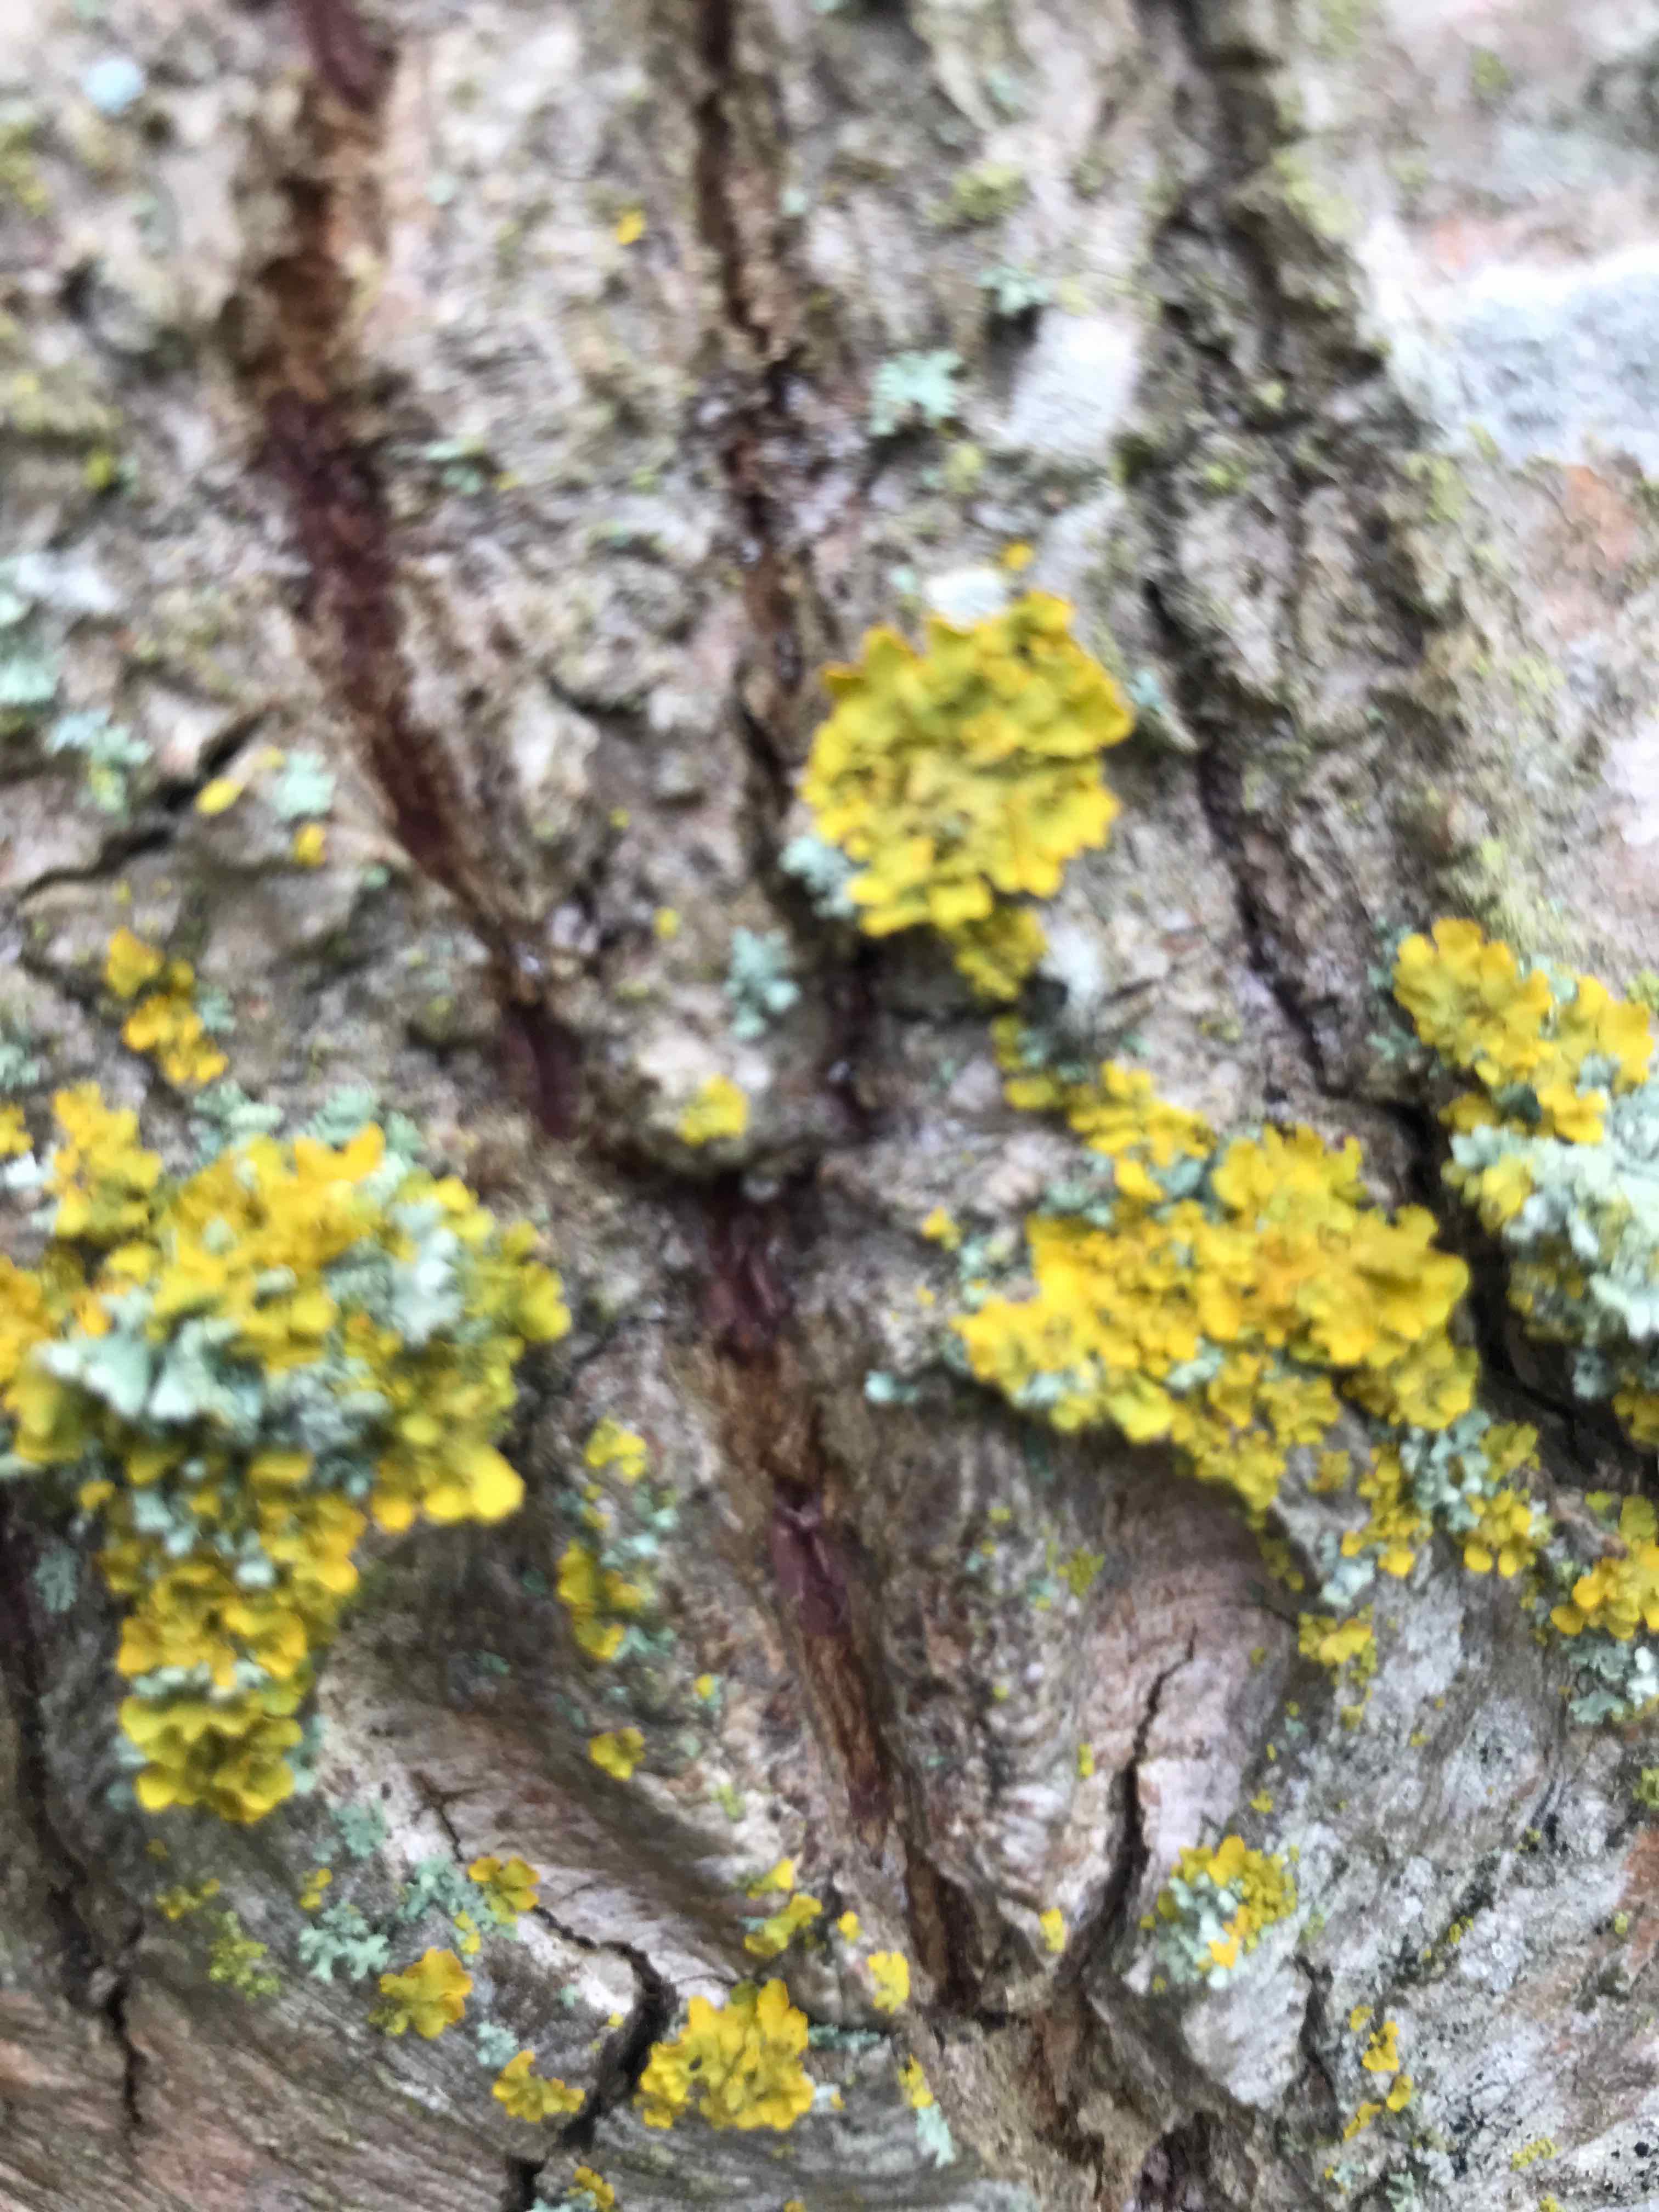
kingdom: Fungi
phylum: Ascomycota
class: Lecanoromycetes
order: Teloschistales
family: Teloschistaceae
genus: Xanthoria
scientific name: Xanthoria parietina
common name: almindelig væggelav
